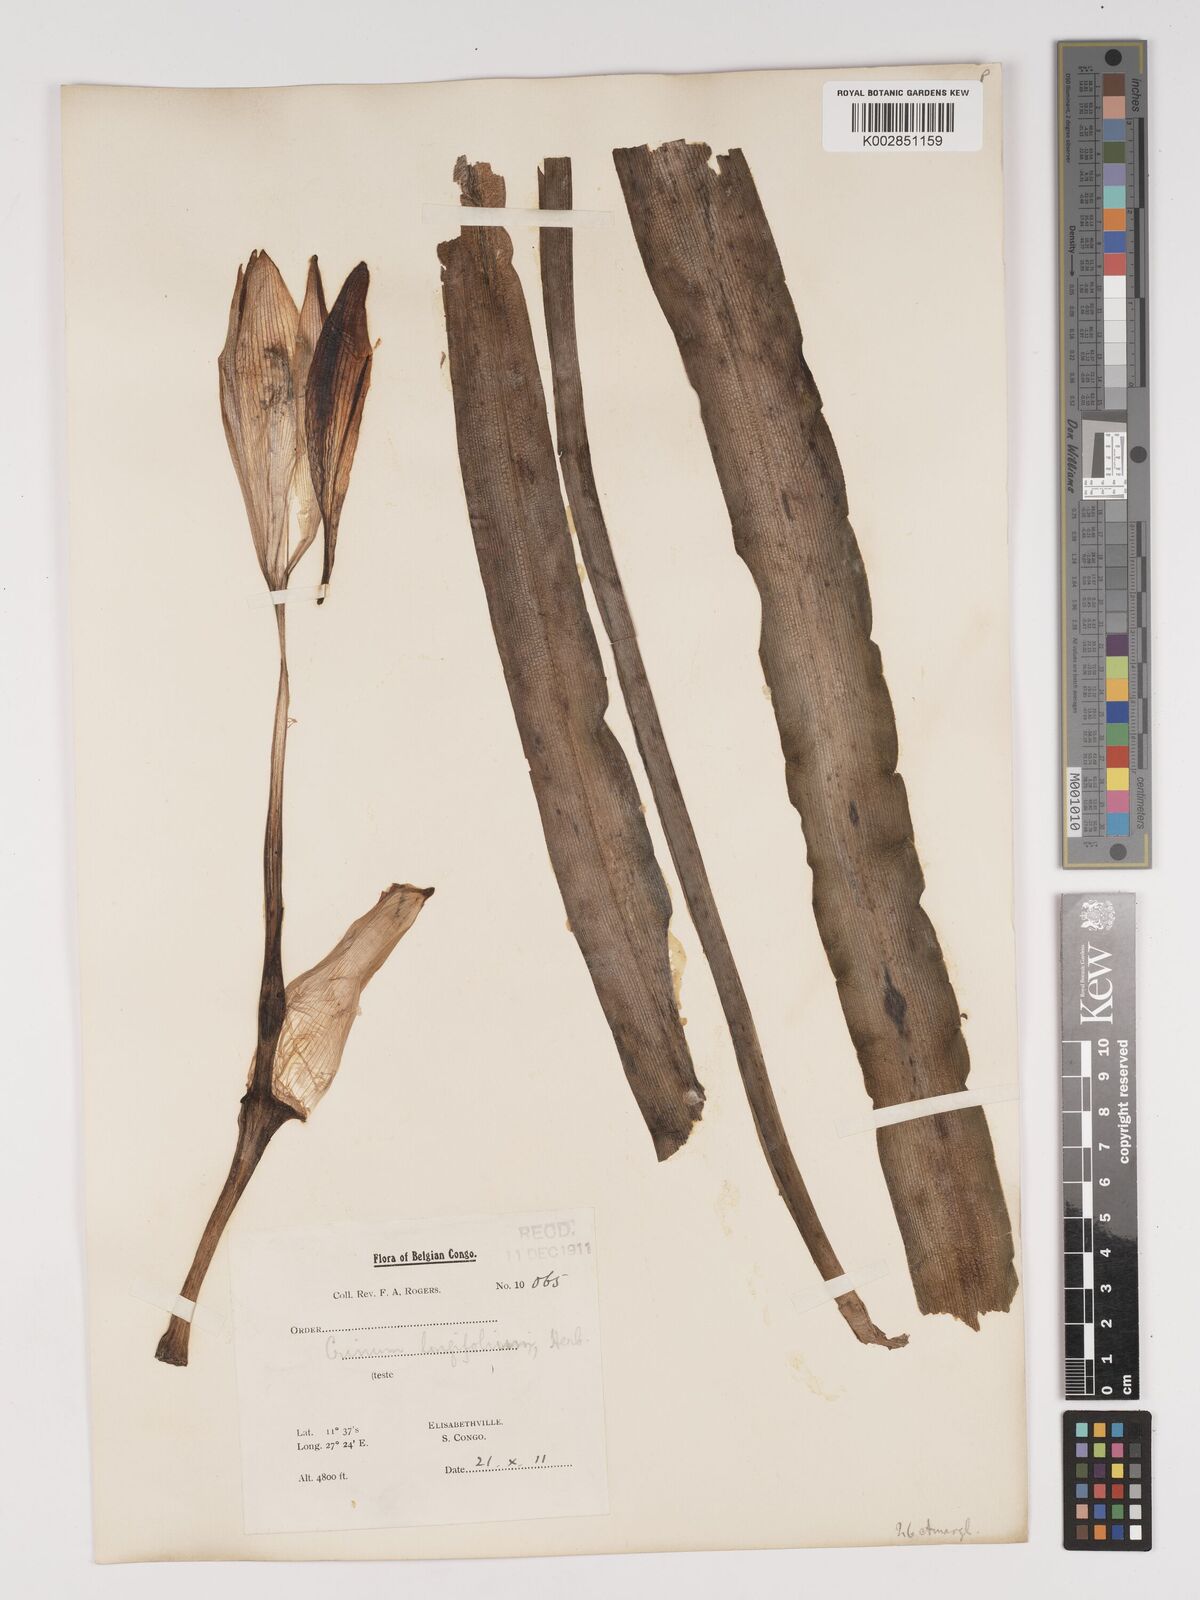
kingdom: Plantae
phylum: Tracheophyta
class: Liliopsida
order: Asparagales
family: Amaryllidaceae
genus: Crinum
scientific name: Crinum macowanii
